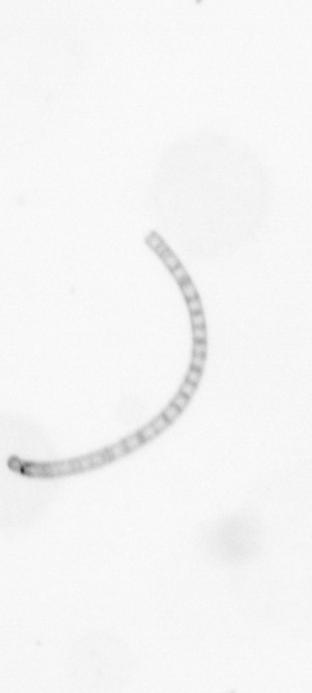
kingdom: Chromista
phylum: Ochrophyta
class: Bacillariophyceae
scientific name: Bacillariophyceae
